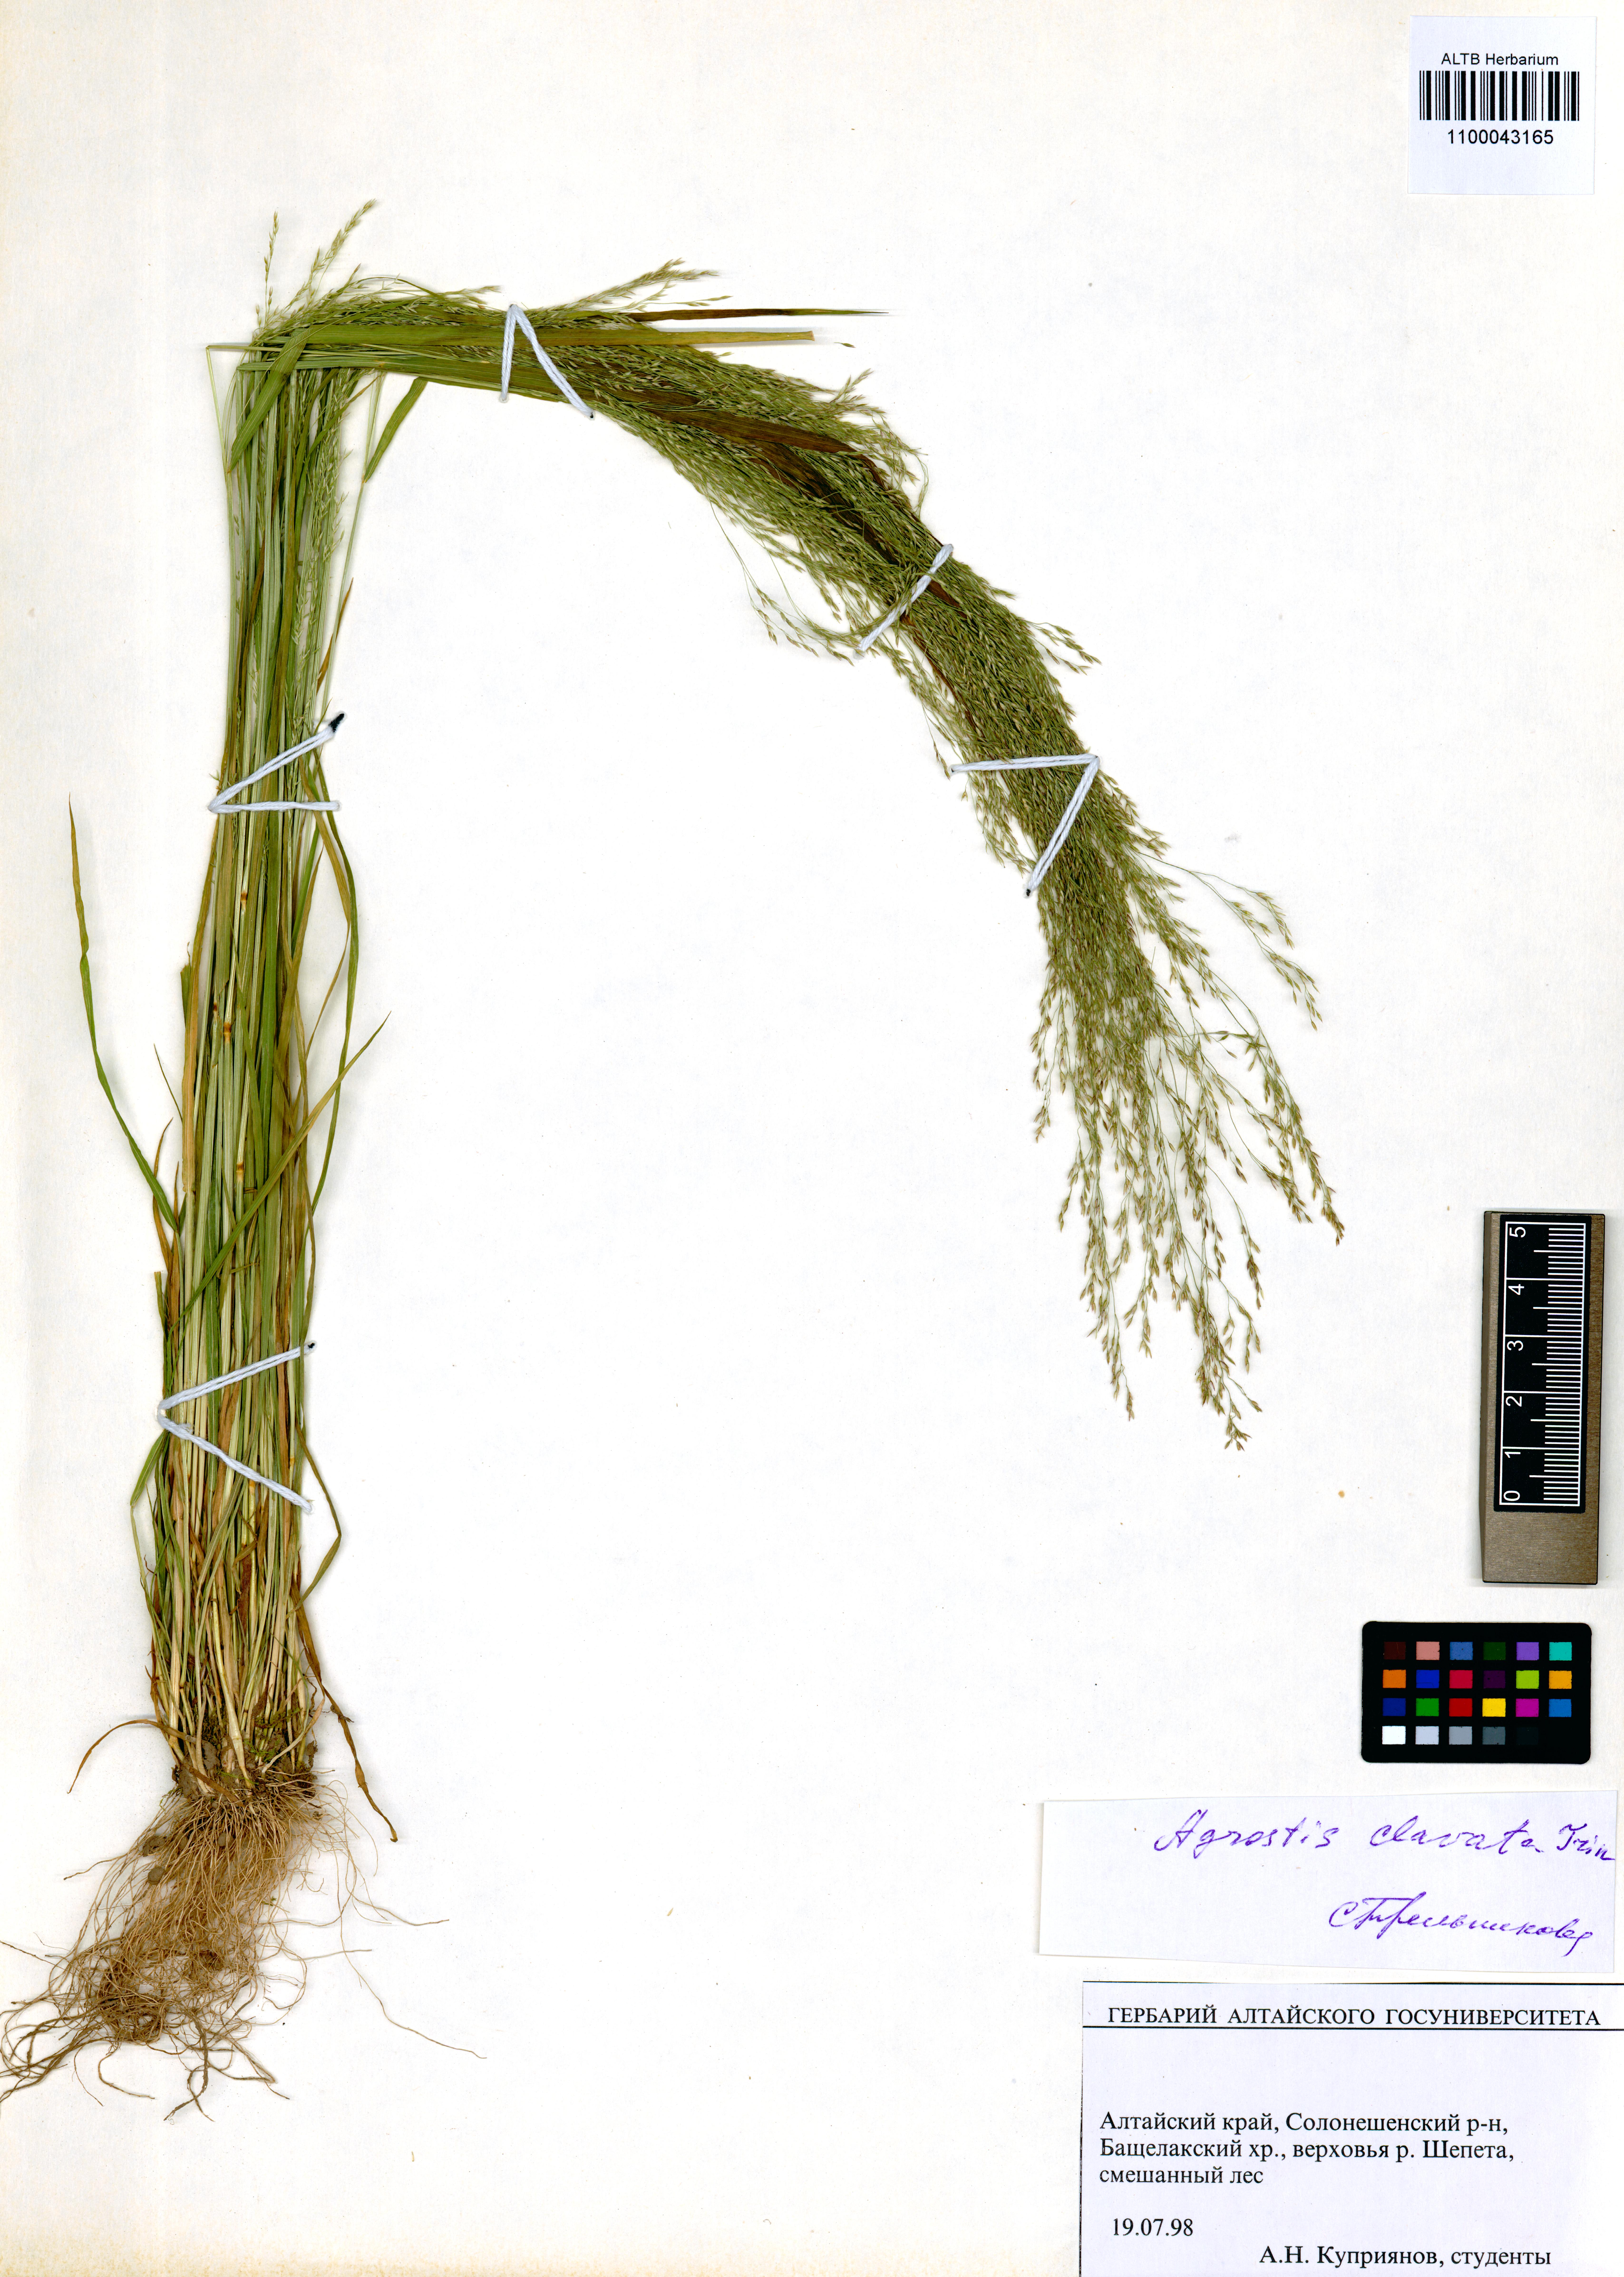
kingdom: Plantae
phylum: Tracheophyta
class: Liliopsida
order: Poales
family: Poaceae
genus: Agrostis
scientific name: Agrostis clavata
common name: Clavate bent
